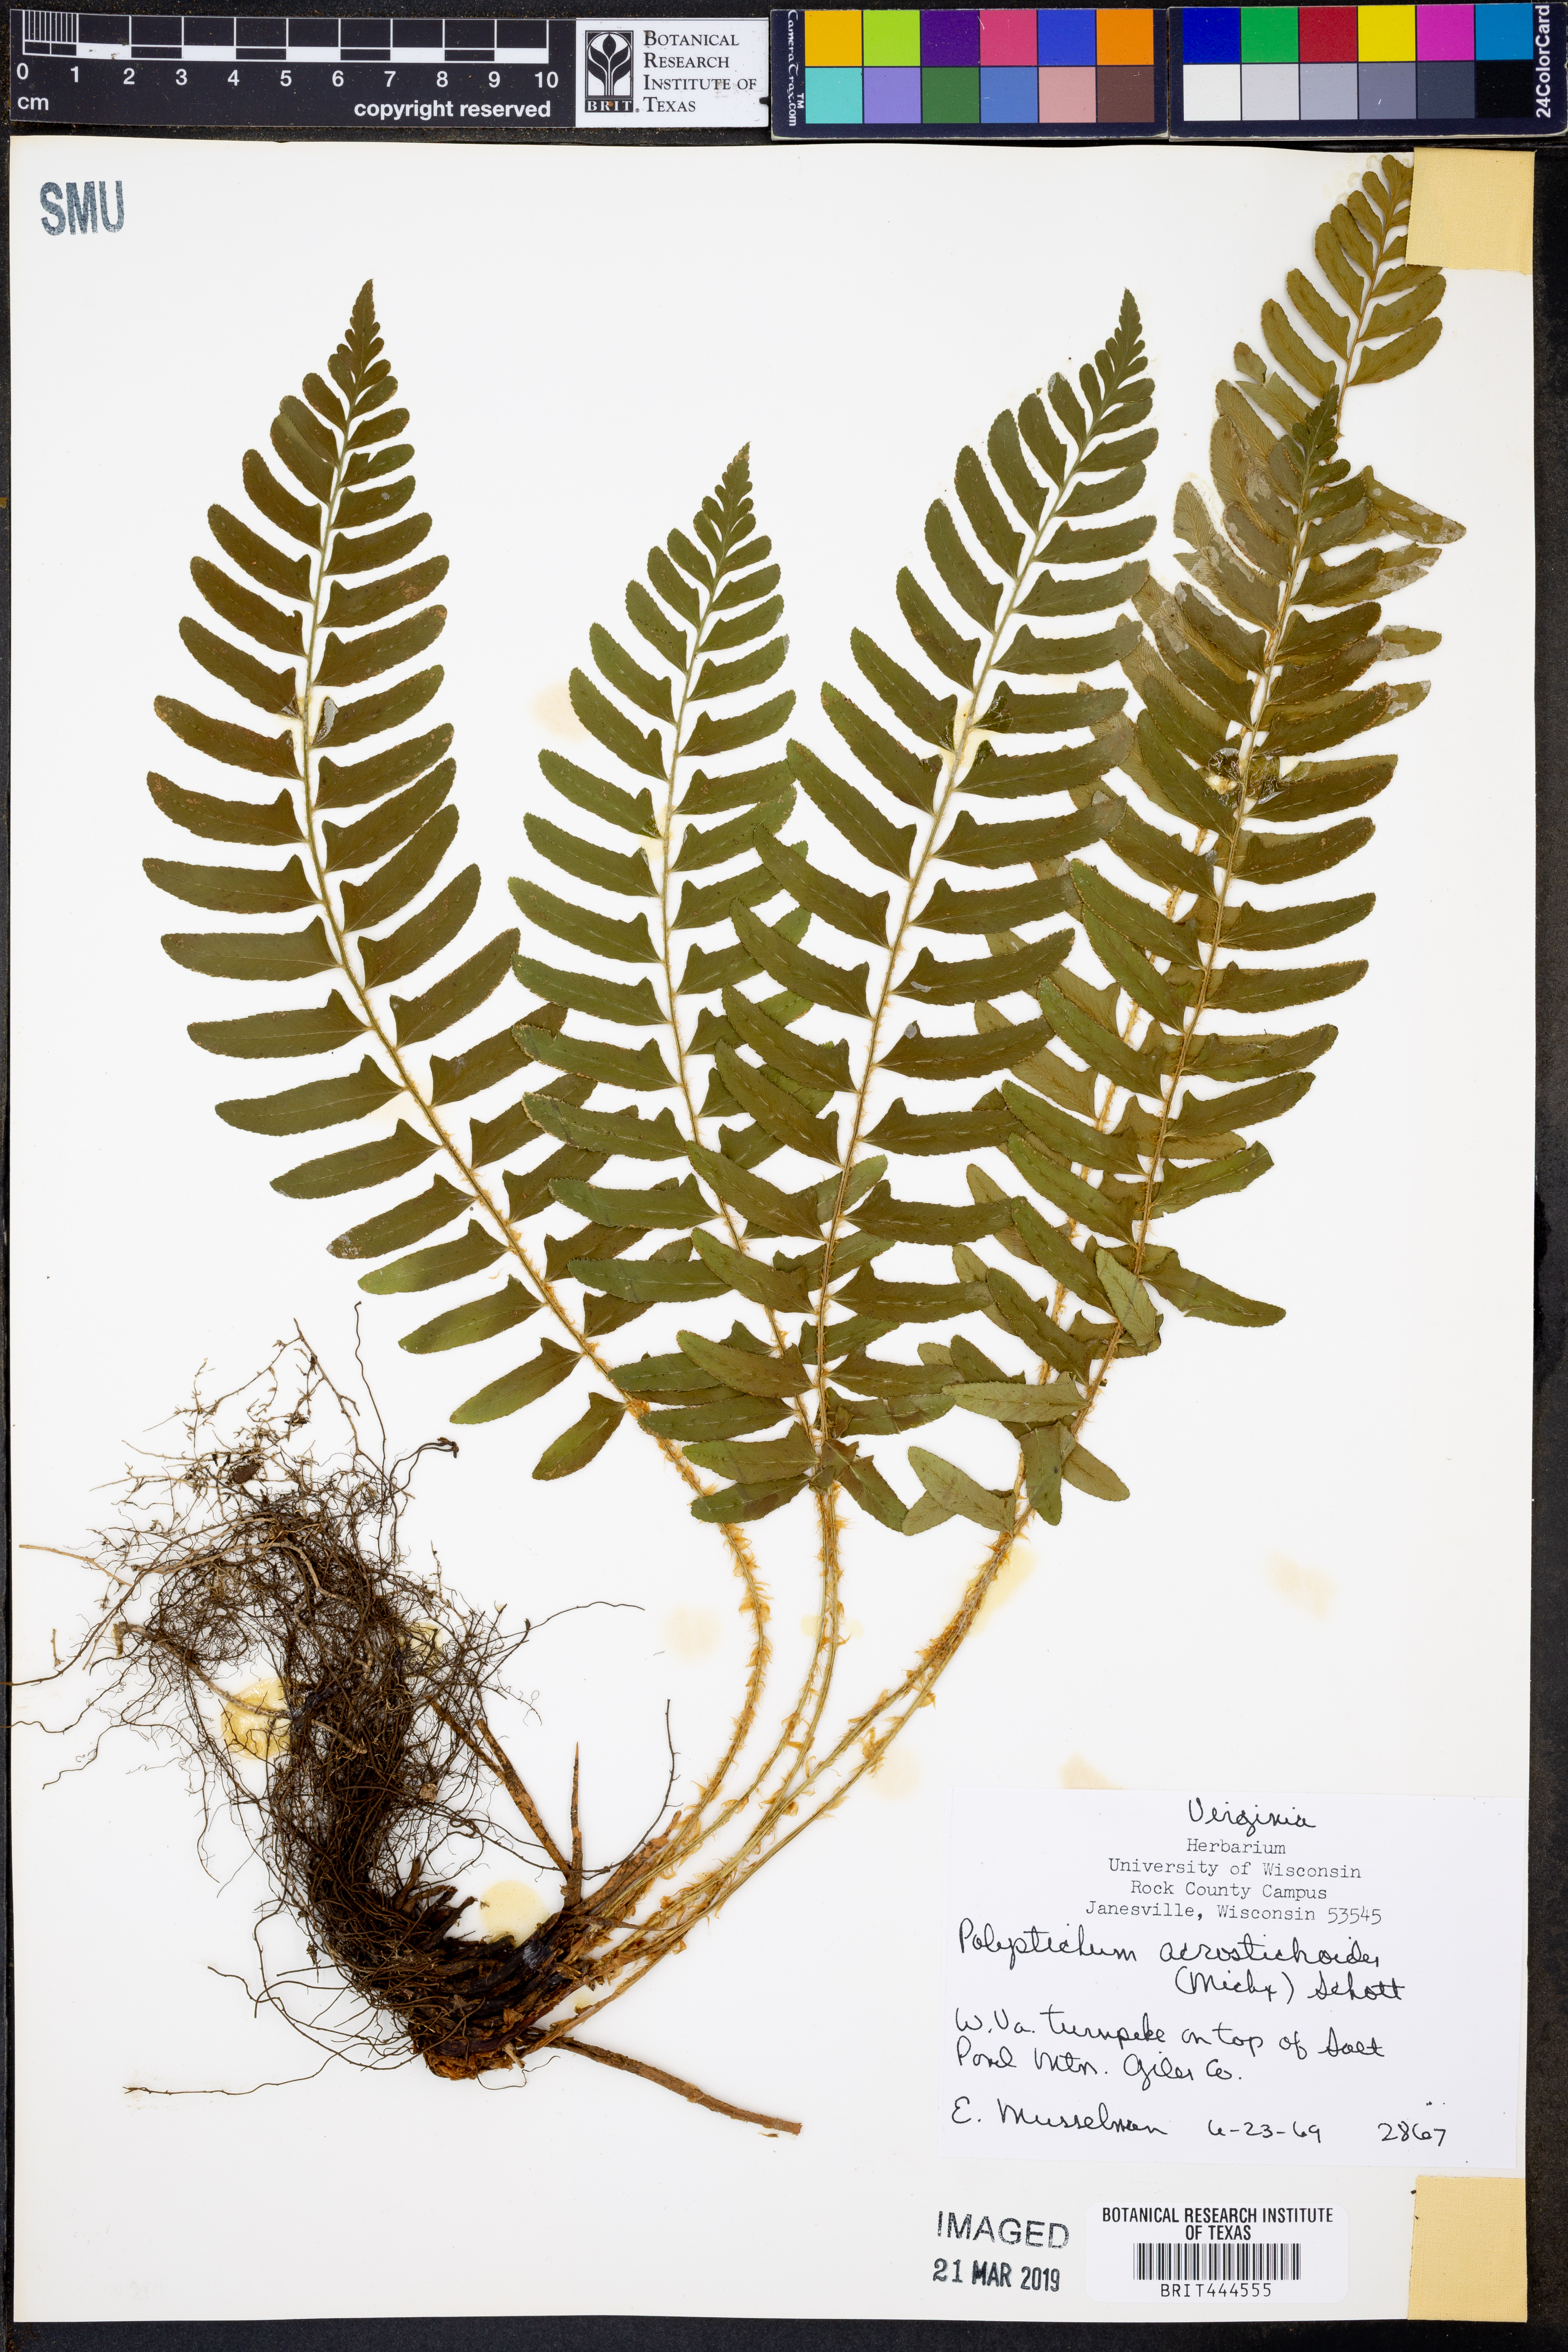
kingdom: Plantae
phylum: Tracheophyta
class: Polypodiopsida
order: Polypodiales
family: Dryopteridaceae
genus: Polystichum
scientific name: Polystichum acrostichoides
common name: Christmas fern
